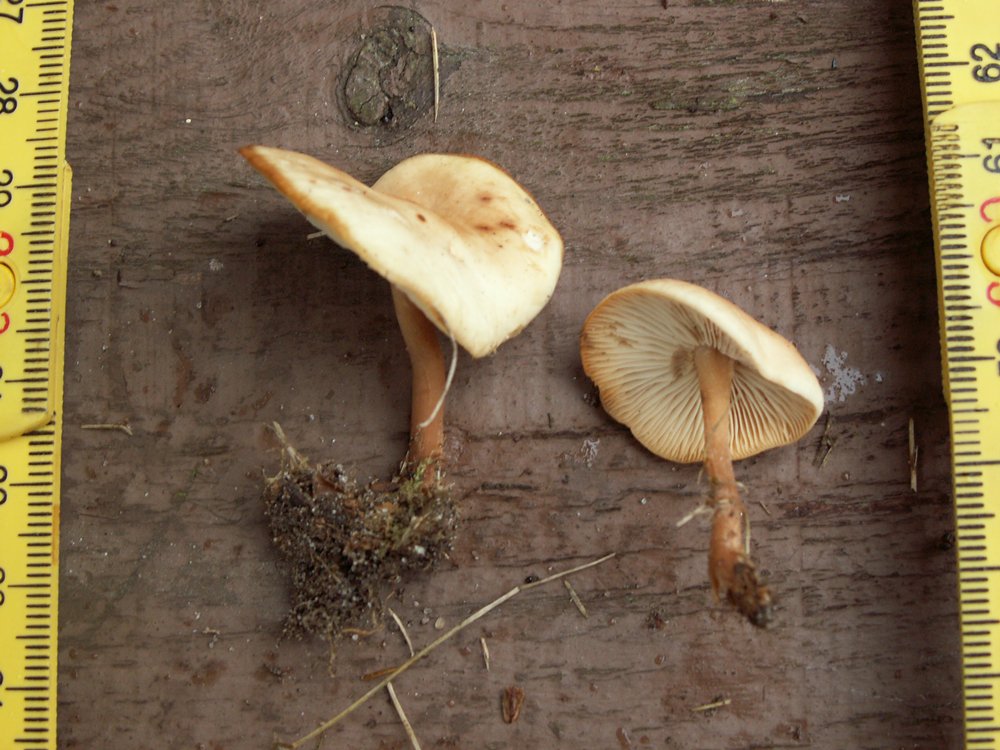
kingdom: Fungi
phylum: Basidiomycota
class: Agaricomycetes
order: Agaricales
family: Omphalotaceae
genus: Gymnopus
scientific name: Gymnopus dryophilus
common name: løv-fladhat
